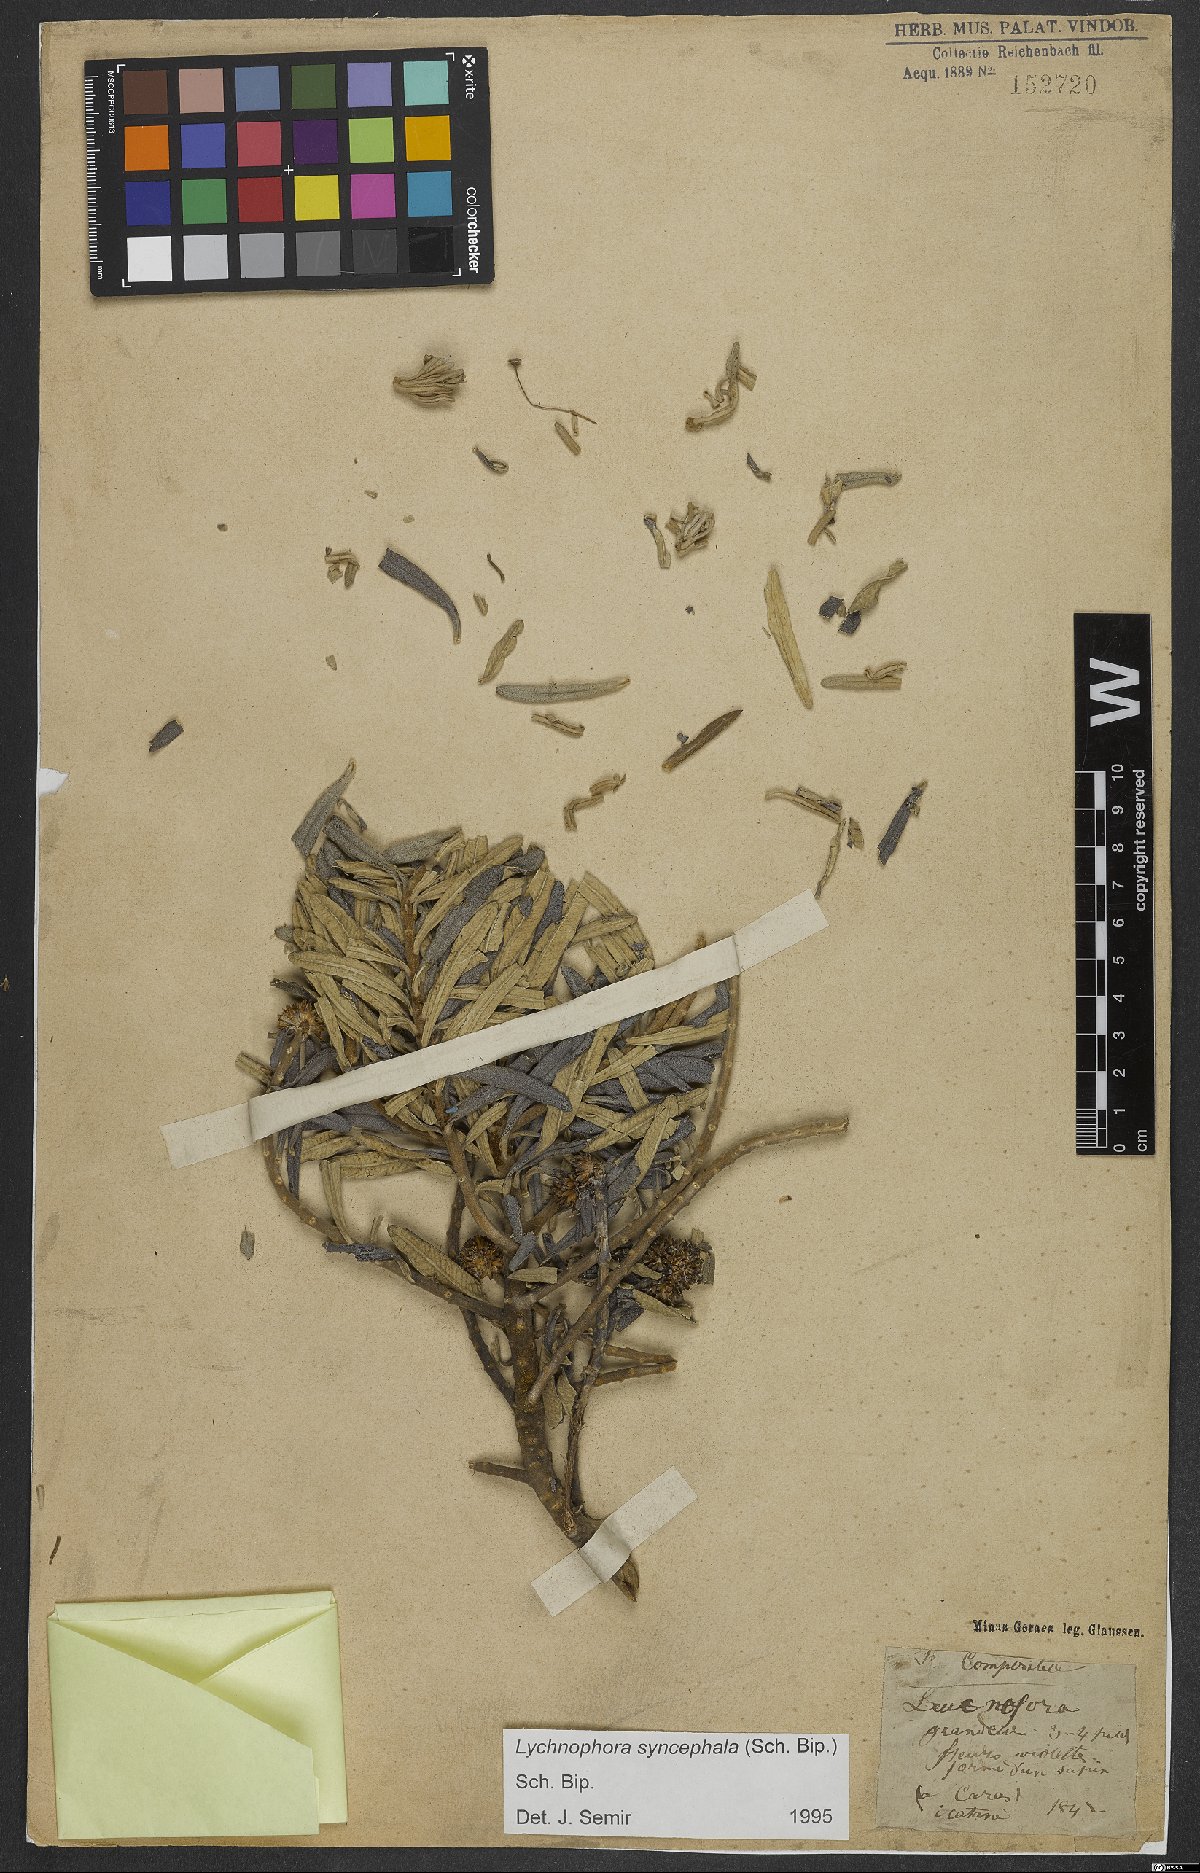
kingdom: Plantae
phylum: Tracheophyta
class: Magnoliopsida
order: Asterales
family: Asteraceae
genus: Eremanthus
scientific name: Eremanthus syncephalus
